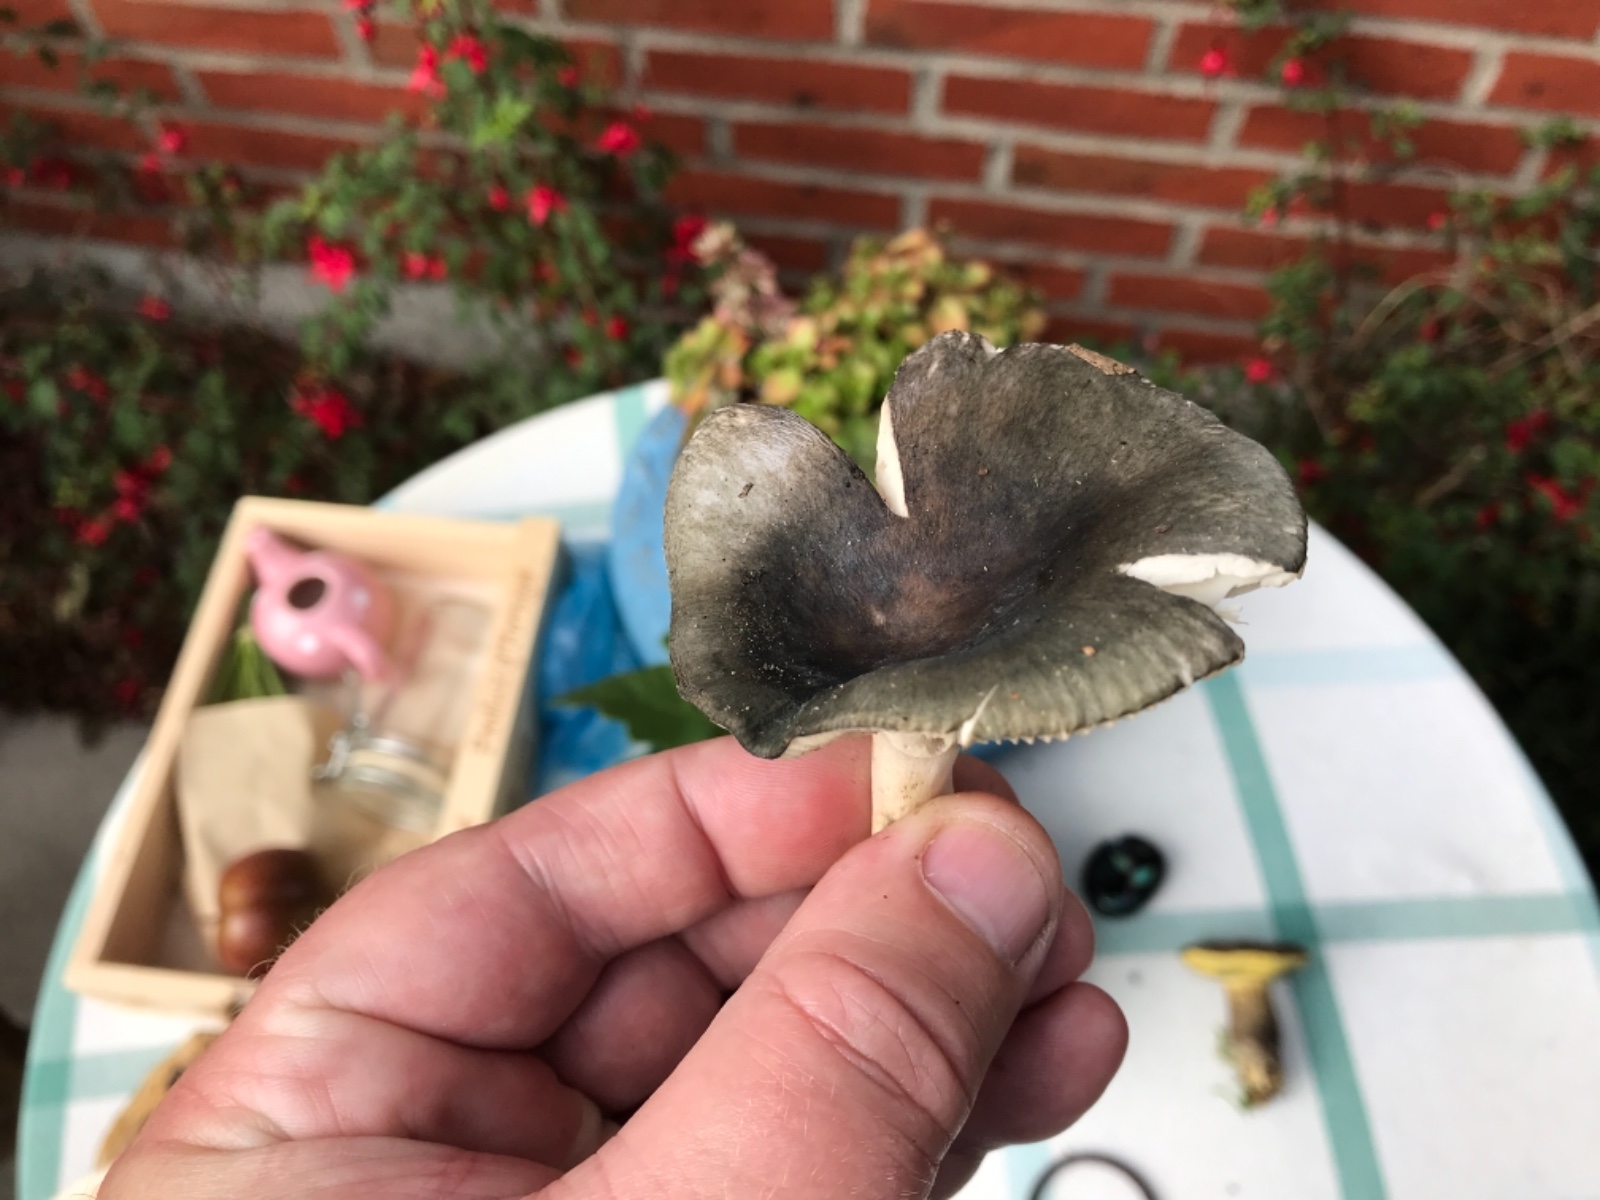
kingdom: Fungi
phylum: Basidiomycota
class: Agaricomycetes
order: Russulales
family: Russulaceae
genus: Russula
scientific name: Russula
